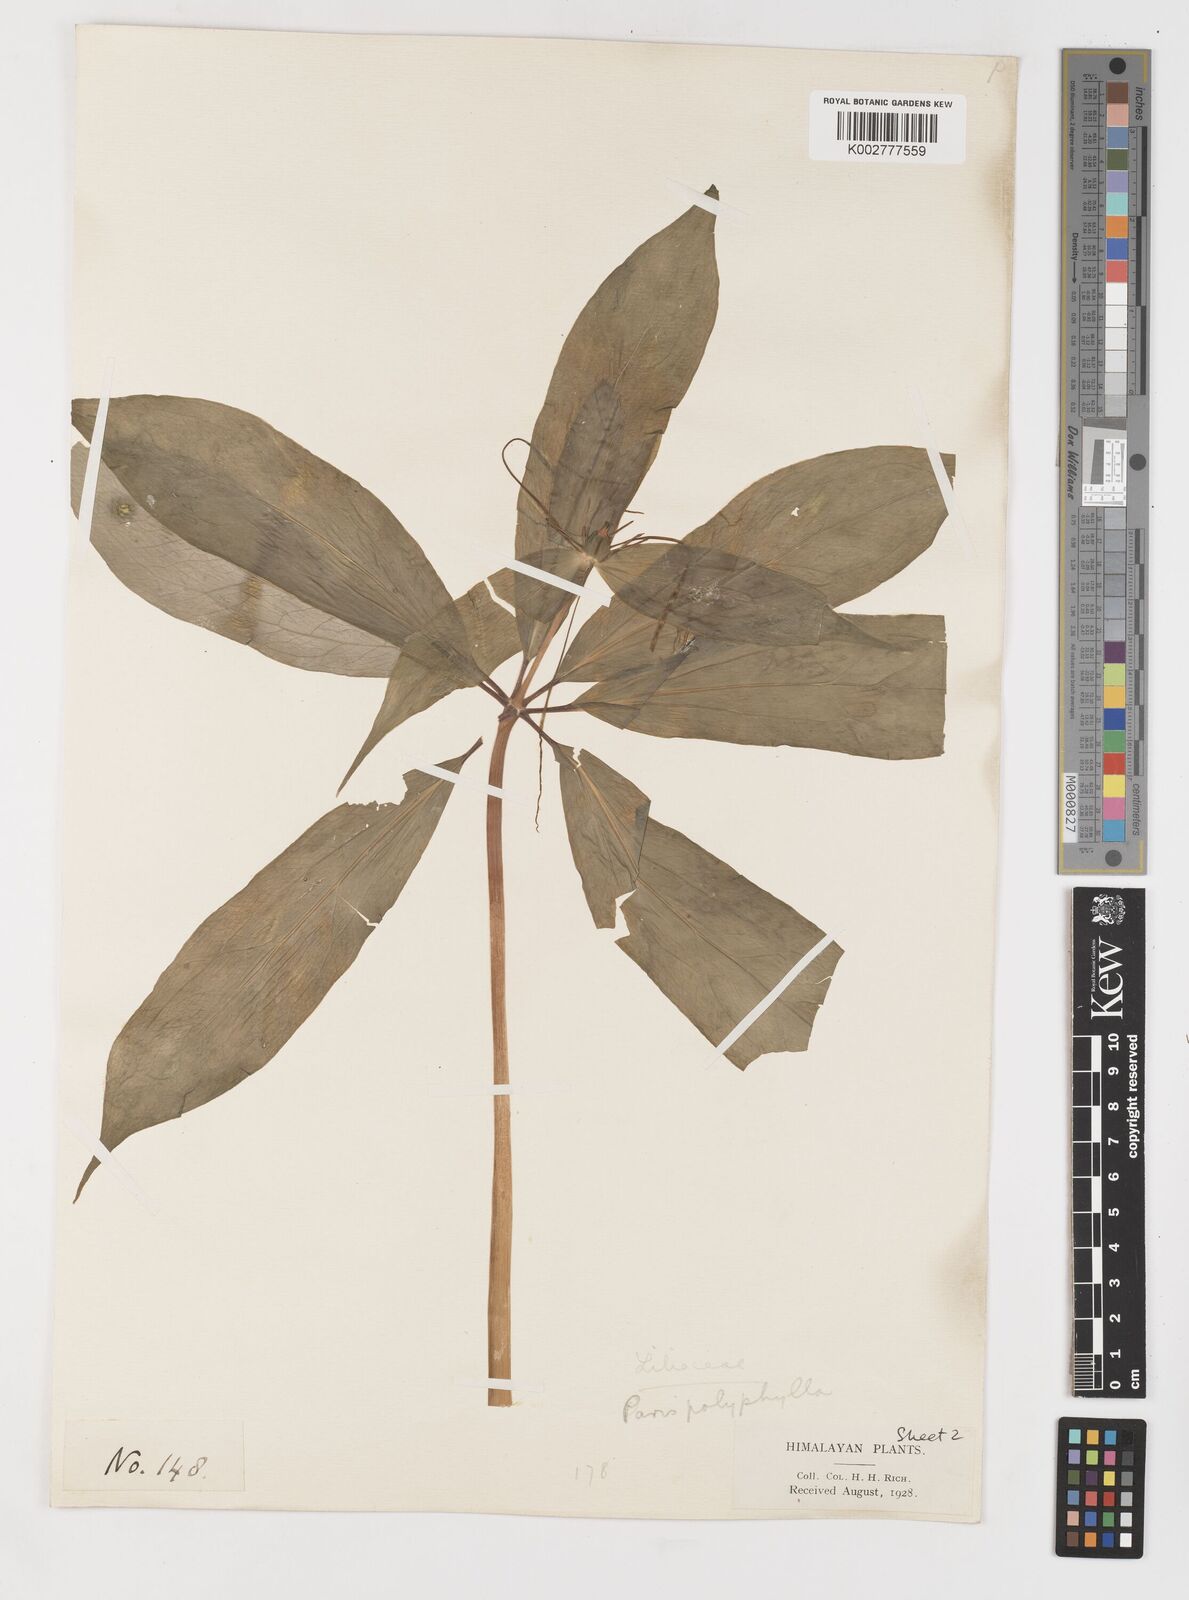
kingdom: Plantae
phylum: Tracheophyta
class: Liliopsida
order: Liliales
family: Melanthiaceae
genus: Paris
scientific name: Paris polyphylla
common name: Love apple
